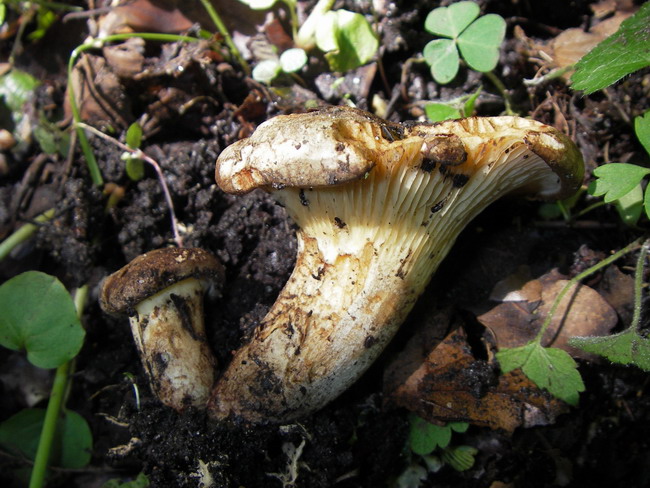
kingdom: Fungi
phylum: Basidiomycota
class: Agaricomycetes
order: Boletales
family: Paxillaceae
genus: Paxillus
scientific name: Paxillus rubicundulus
